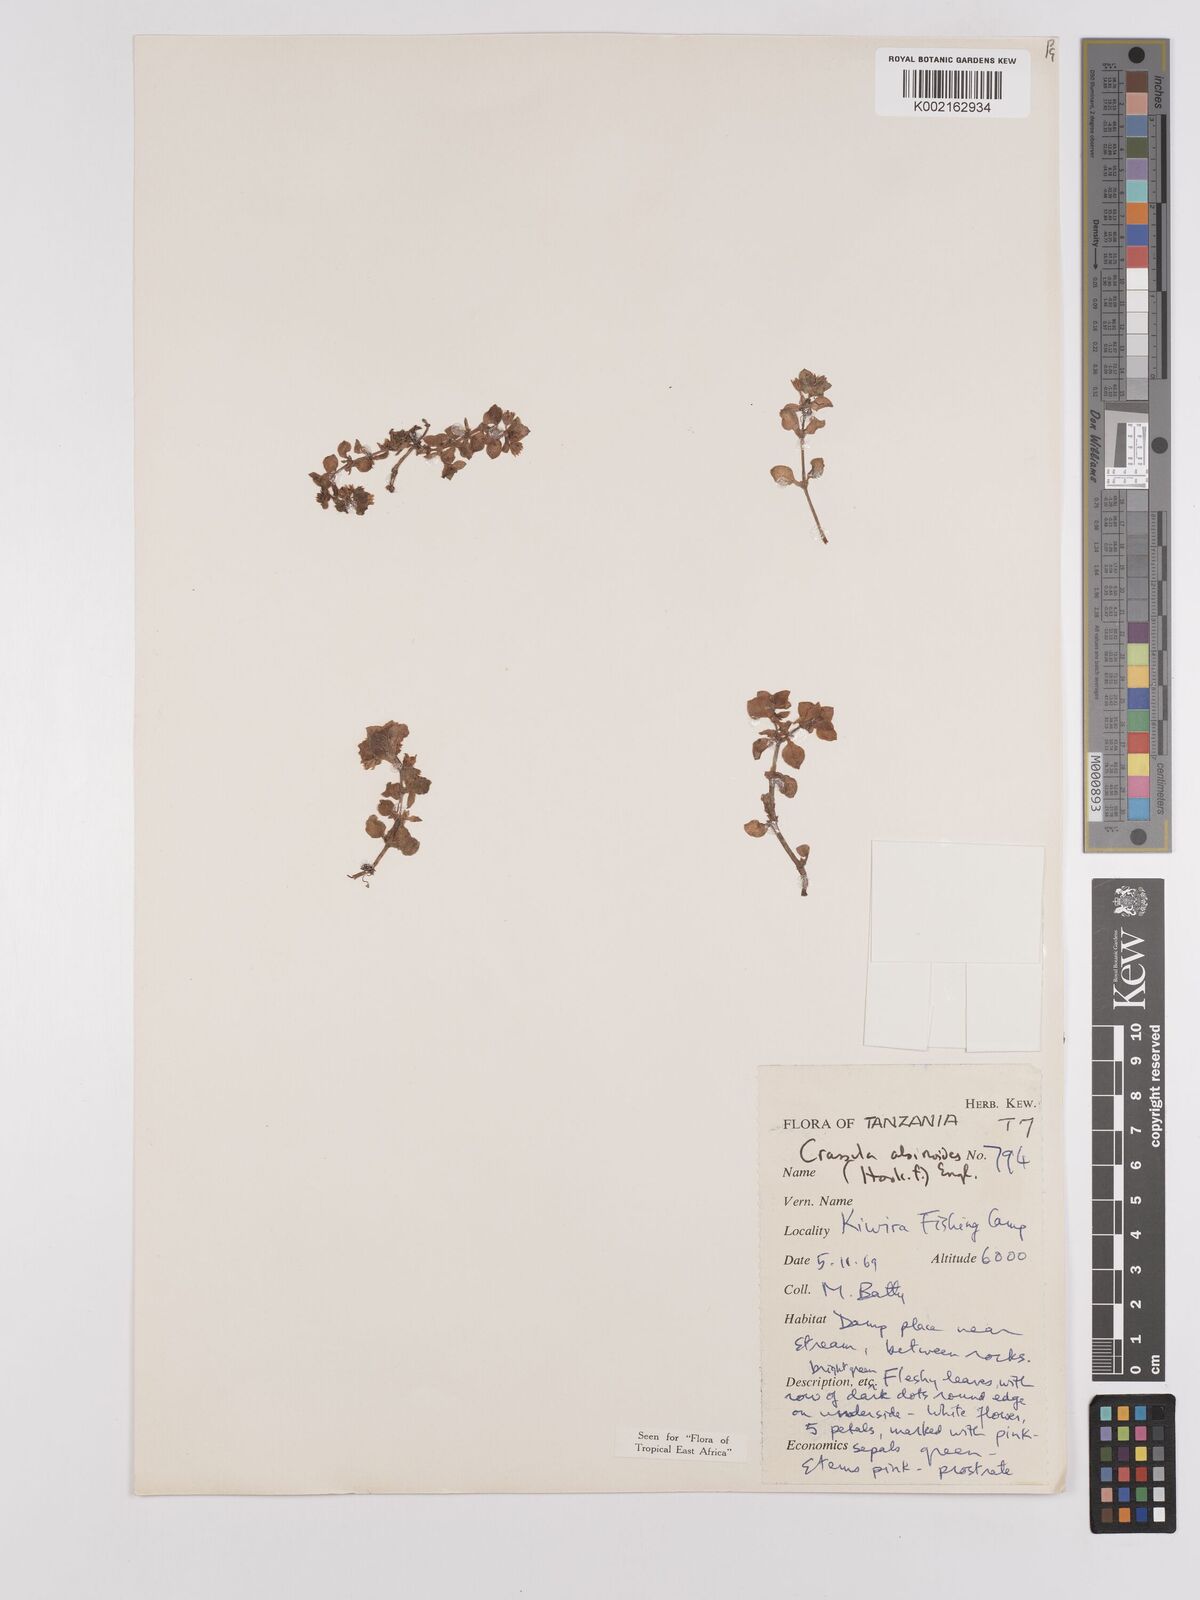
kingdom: Plantae
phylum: Tracheophyta
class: Magnoliopsida
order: Saxifragales
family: Crassulaceae
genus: Crassula
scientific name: Crassula alsinoides
